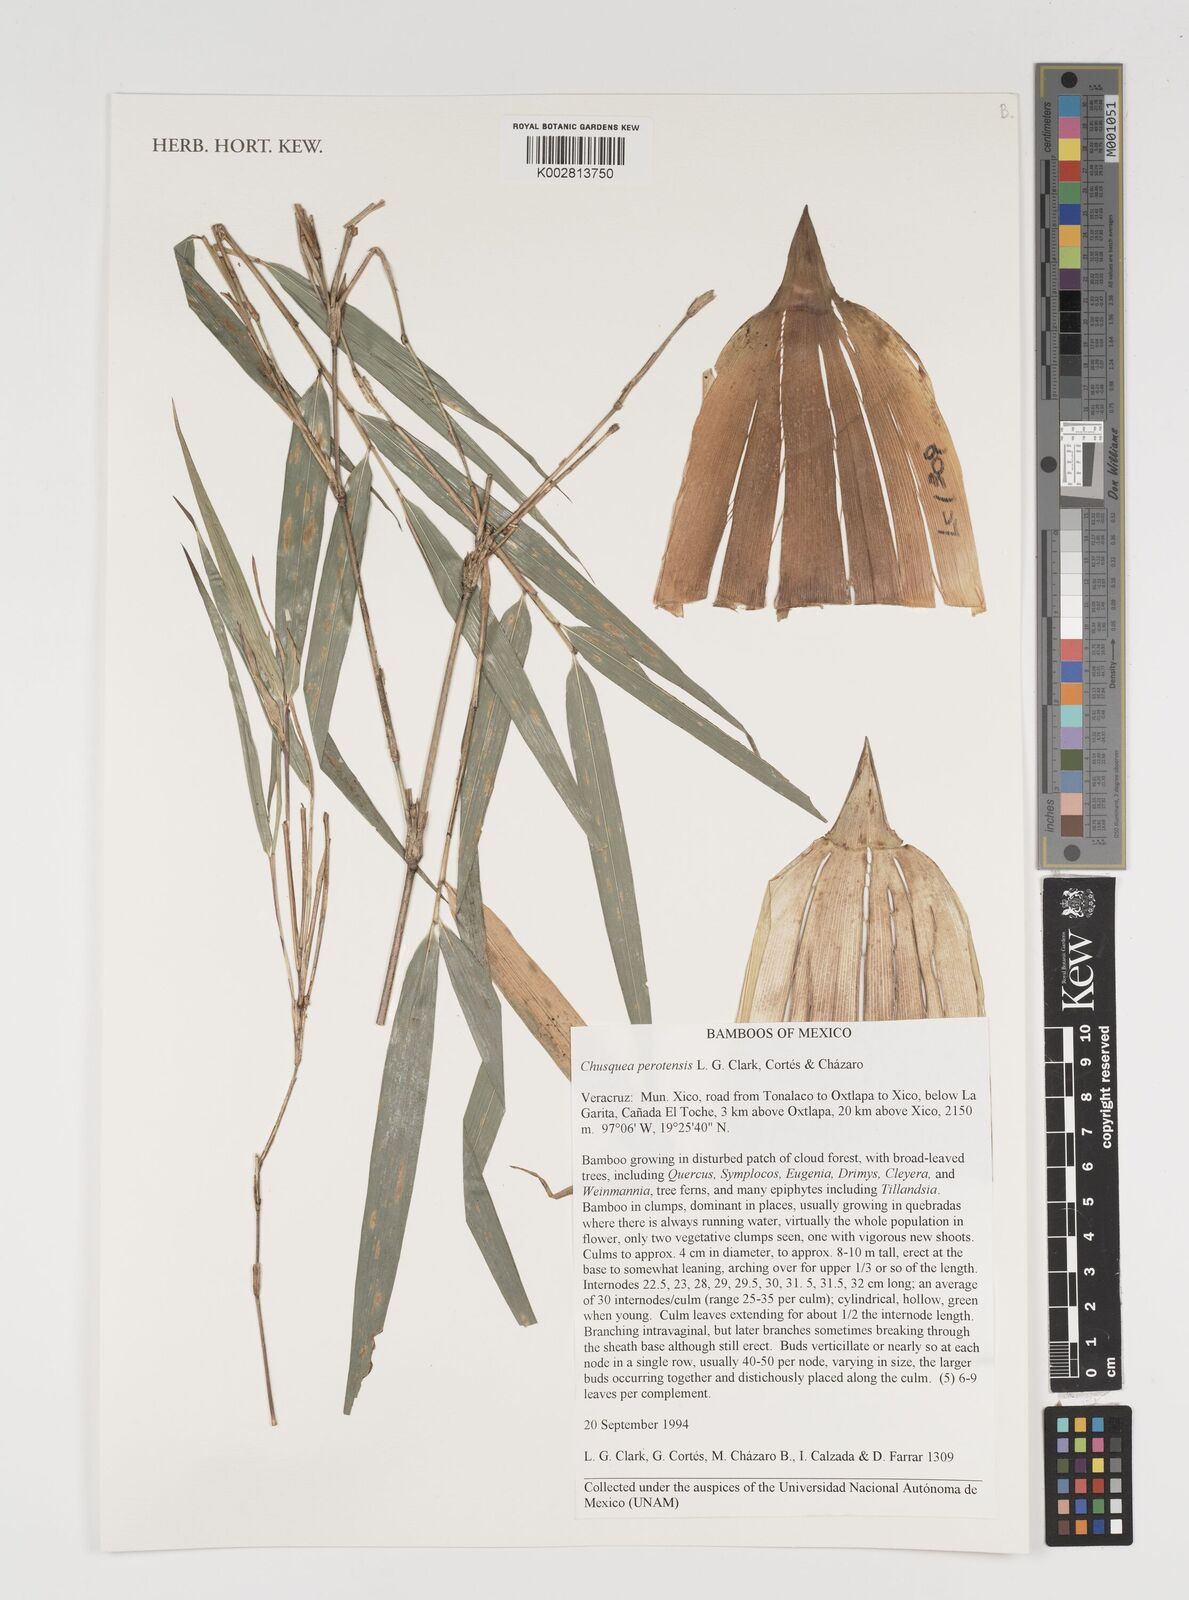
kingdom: Plantae
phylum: Tracheophyta
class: Liliopsida
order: Poales
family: Poaceae
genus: Chusquea
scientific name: Chusquea perotensis
